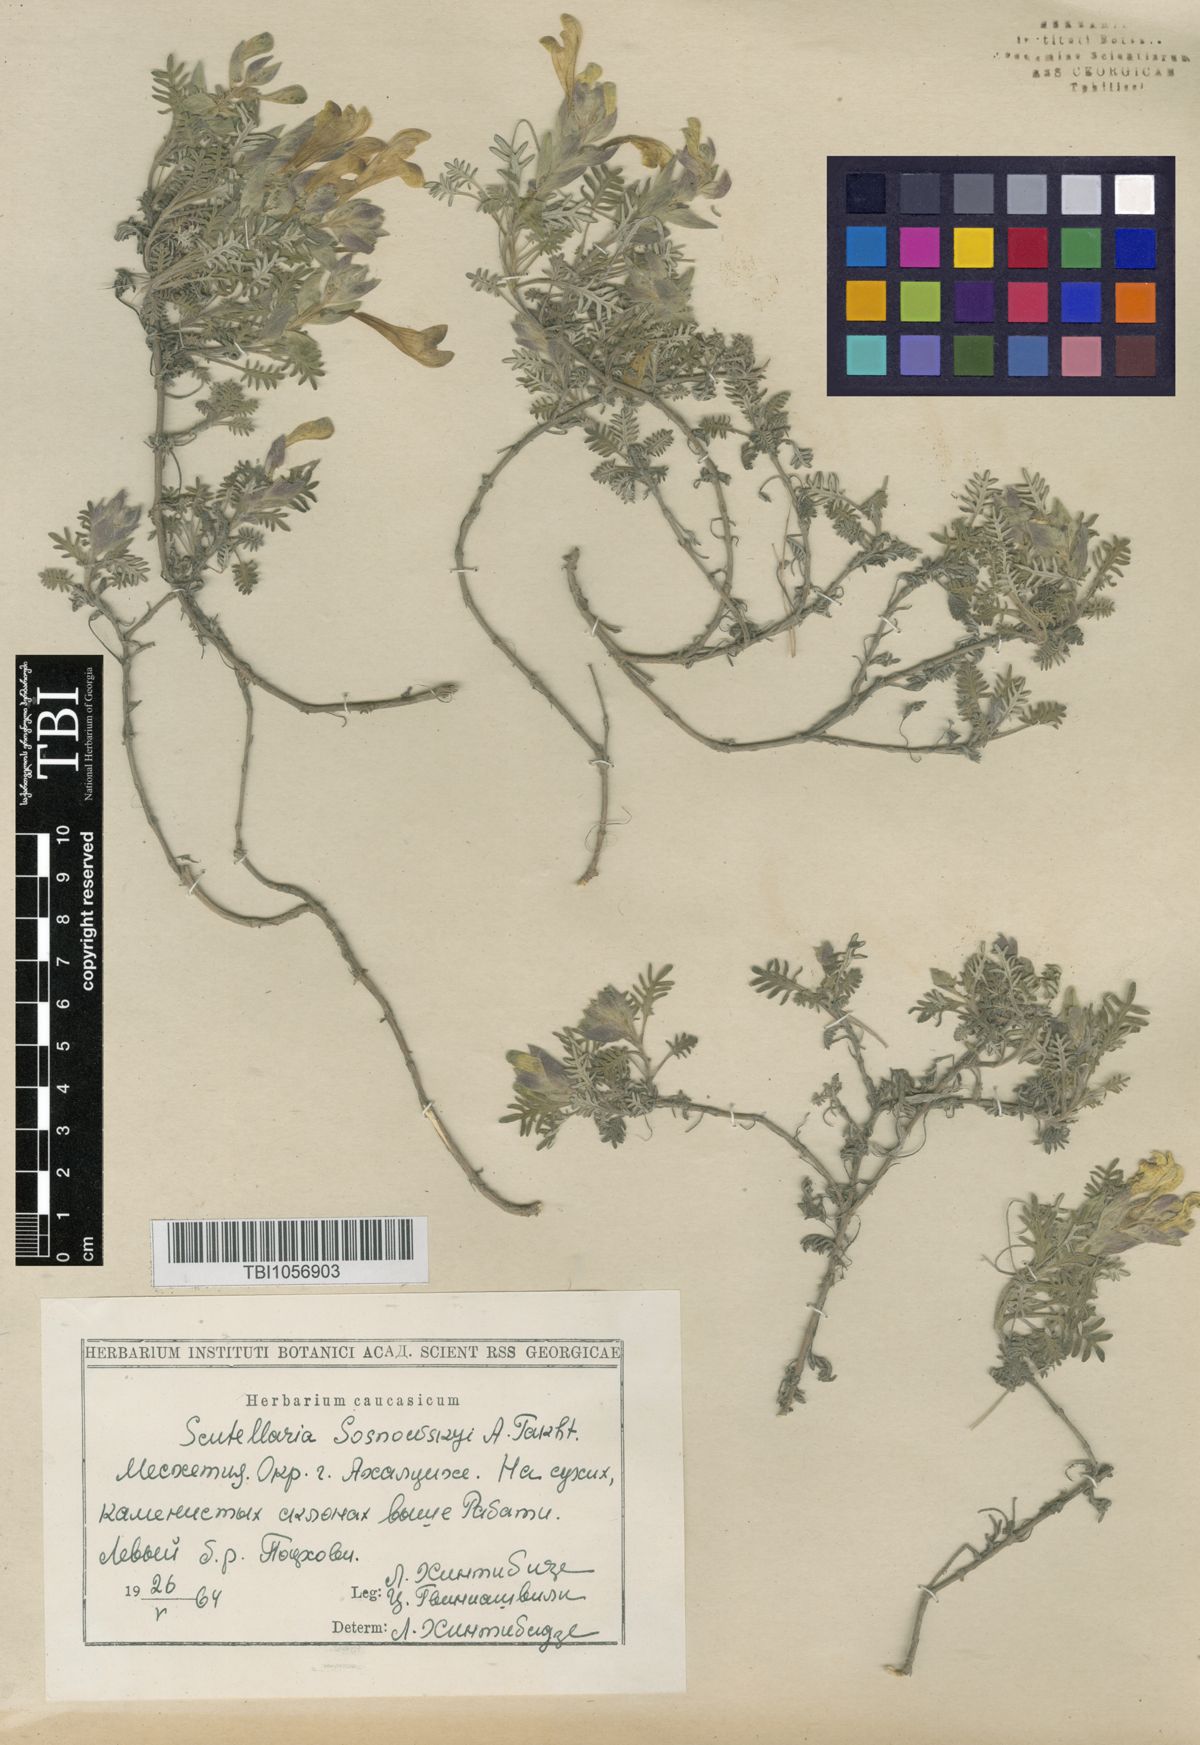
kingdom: Plantae
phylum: Tracheophyta
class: Magnoliopsida
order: Lamiales
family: Lamiaceae
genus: Scutellaria
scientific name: Scutellaria sosnowskyi
